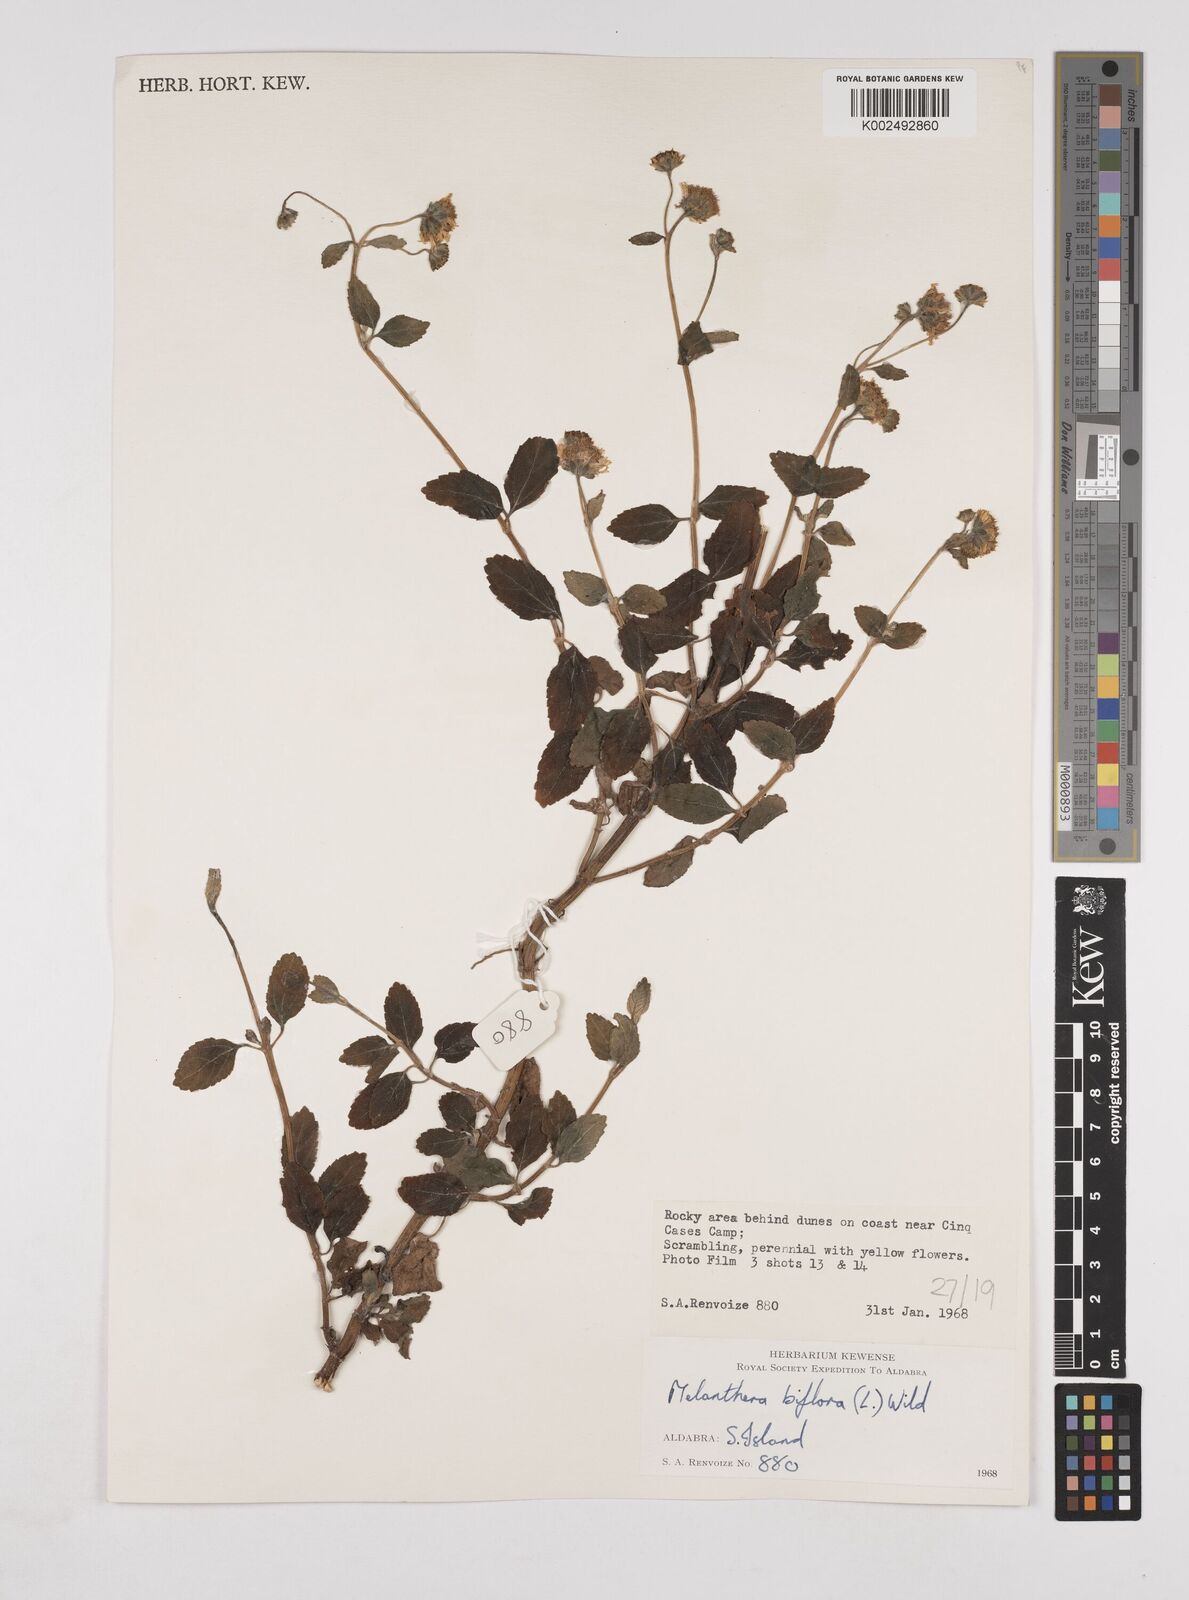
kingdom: Plantae
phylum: Tracheophyta
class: Magnoliopsida
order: Asterales
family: Asteraceae
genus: Wollastonia
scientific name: Wollastonia biflora
